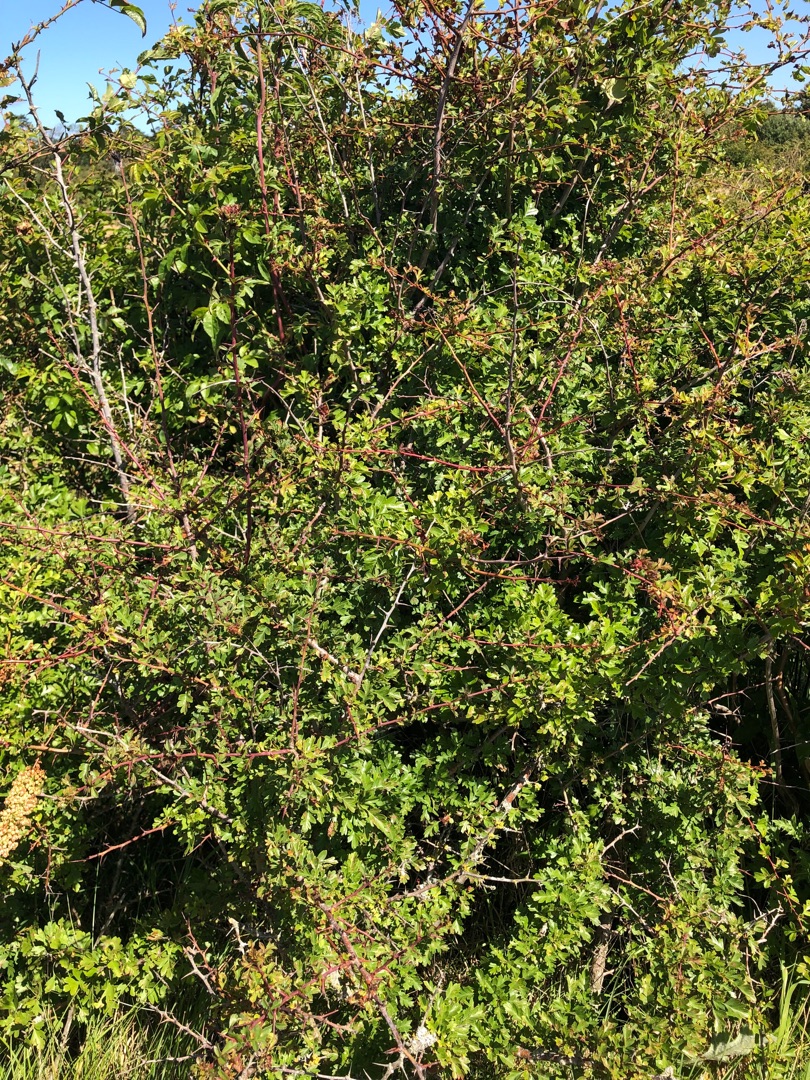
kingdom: Plantae
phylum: Tracheophyta
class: Magnoliopsida
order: Rosales
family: Rosaceae
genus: Crataegus
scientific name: Crataegus monogyna
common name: Engriflet hvidtjørn
